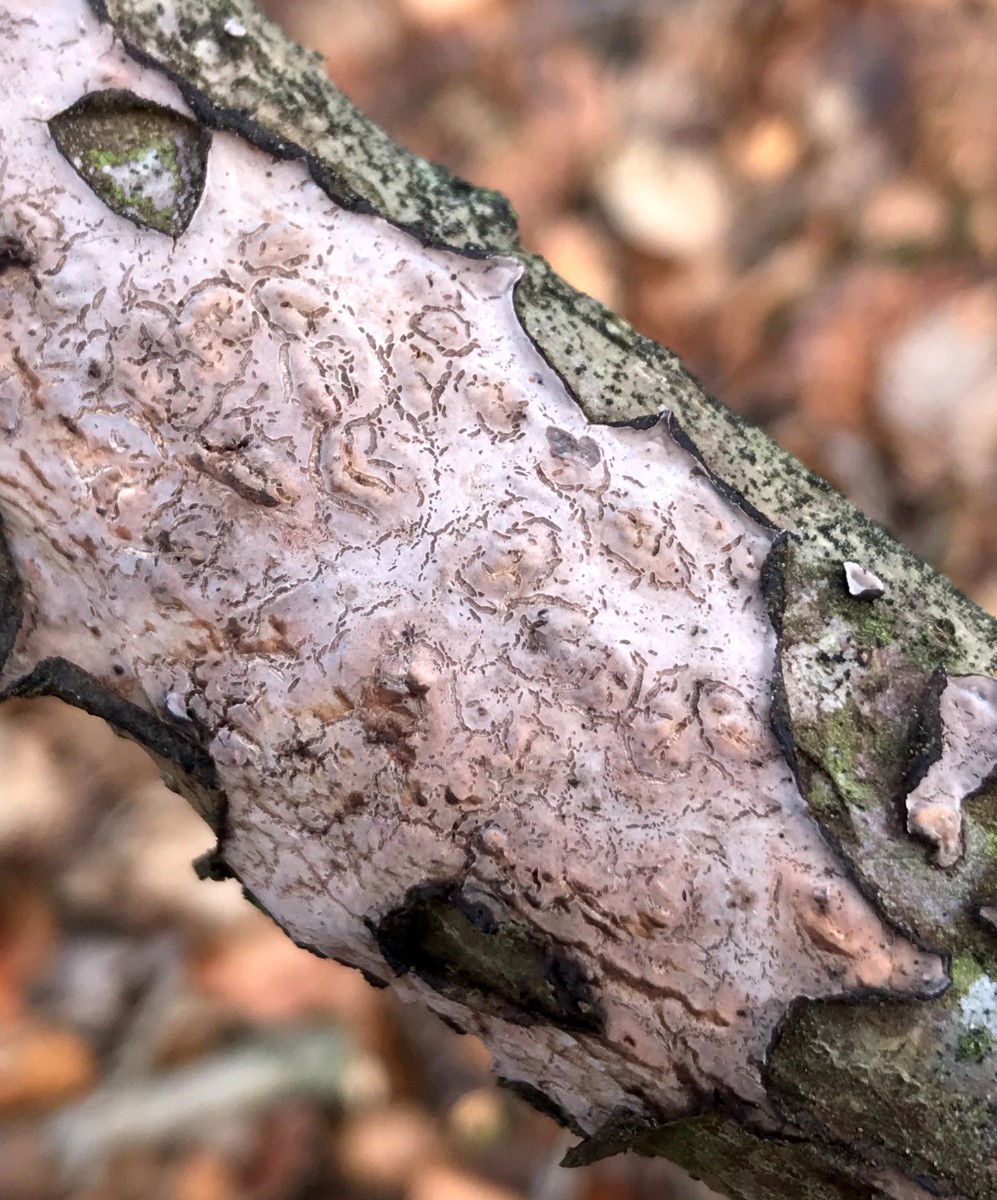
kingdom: Fungi
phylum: Basidiomycota
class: Agaricomycetes
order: Russulales
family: Peniophoraceae
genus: Peniophora
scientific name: Peniophora quercina
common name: ege-voksskind
